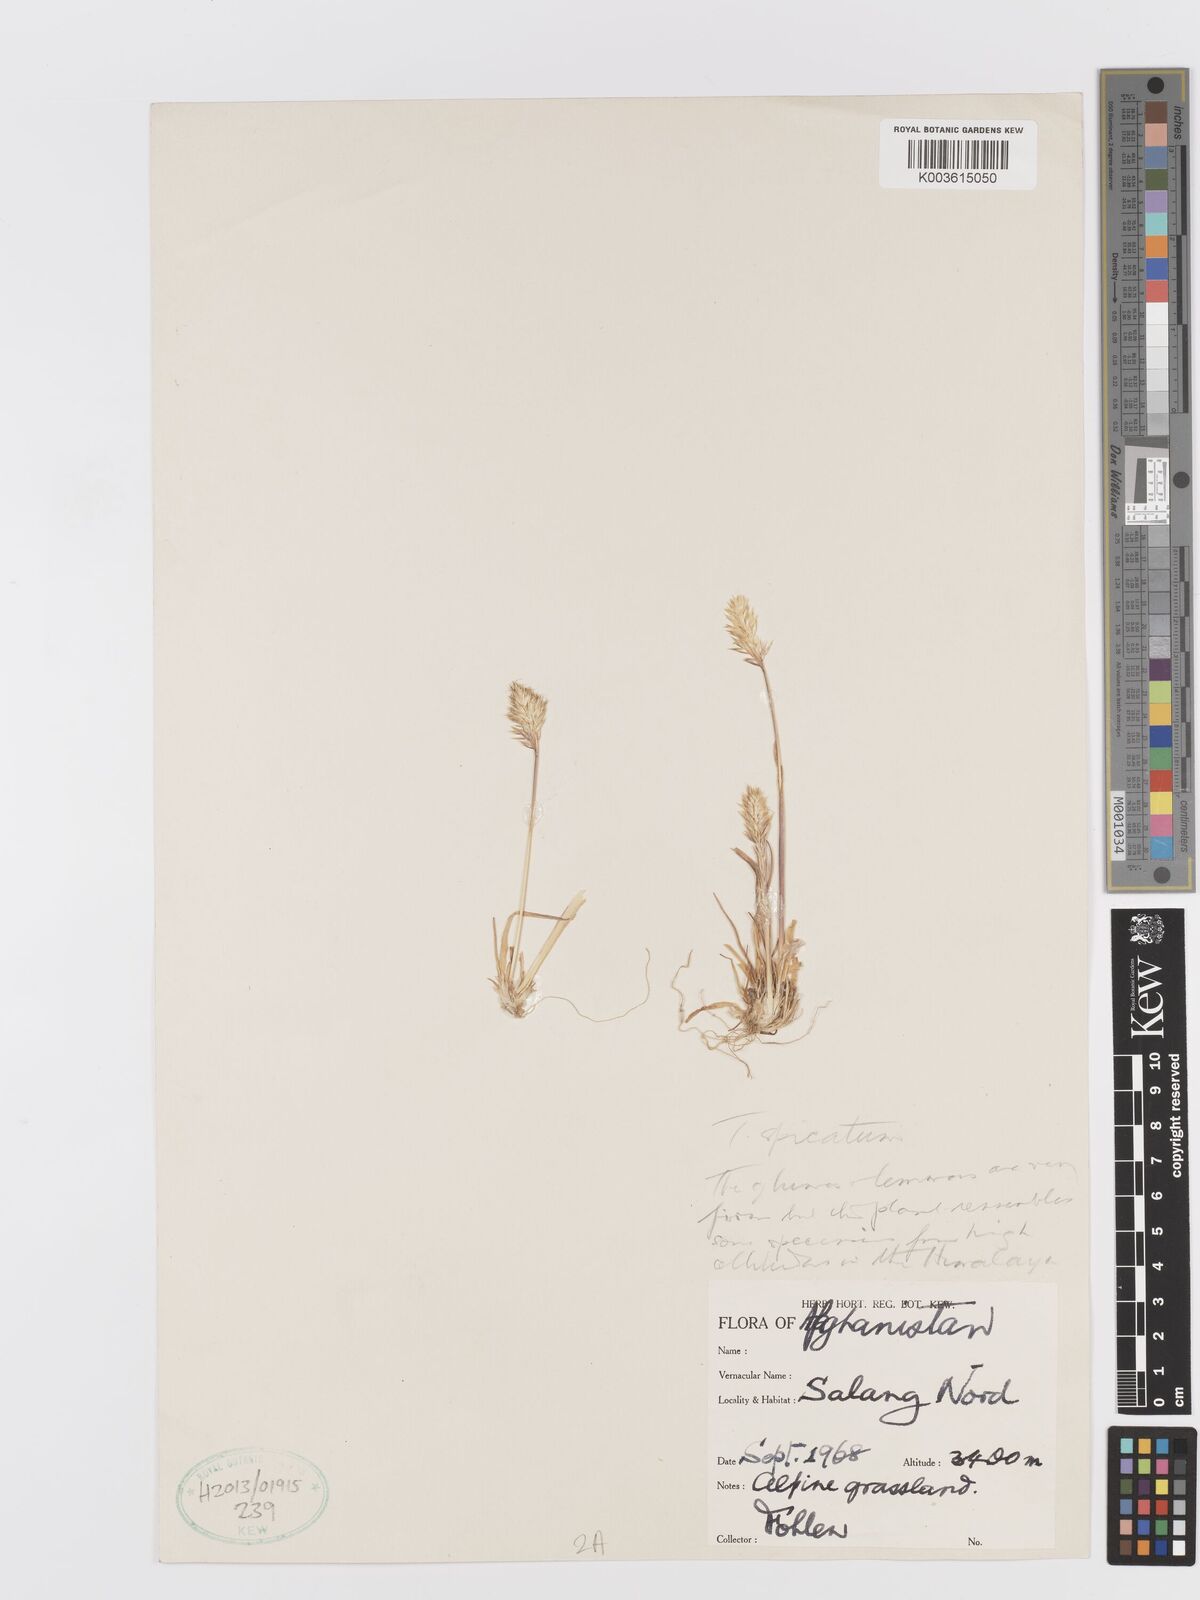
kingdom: Plantae
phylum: Tracheophyta
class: Liliopsida
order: Poales
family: Poaceae
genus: Koeleria
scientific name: Koeleria spicata
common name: Mountain trisetum
